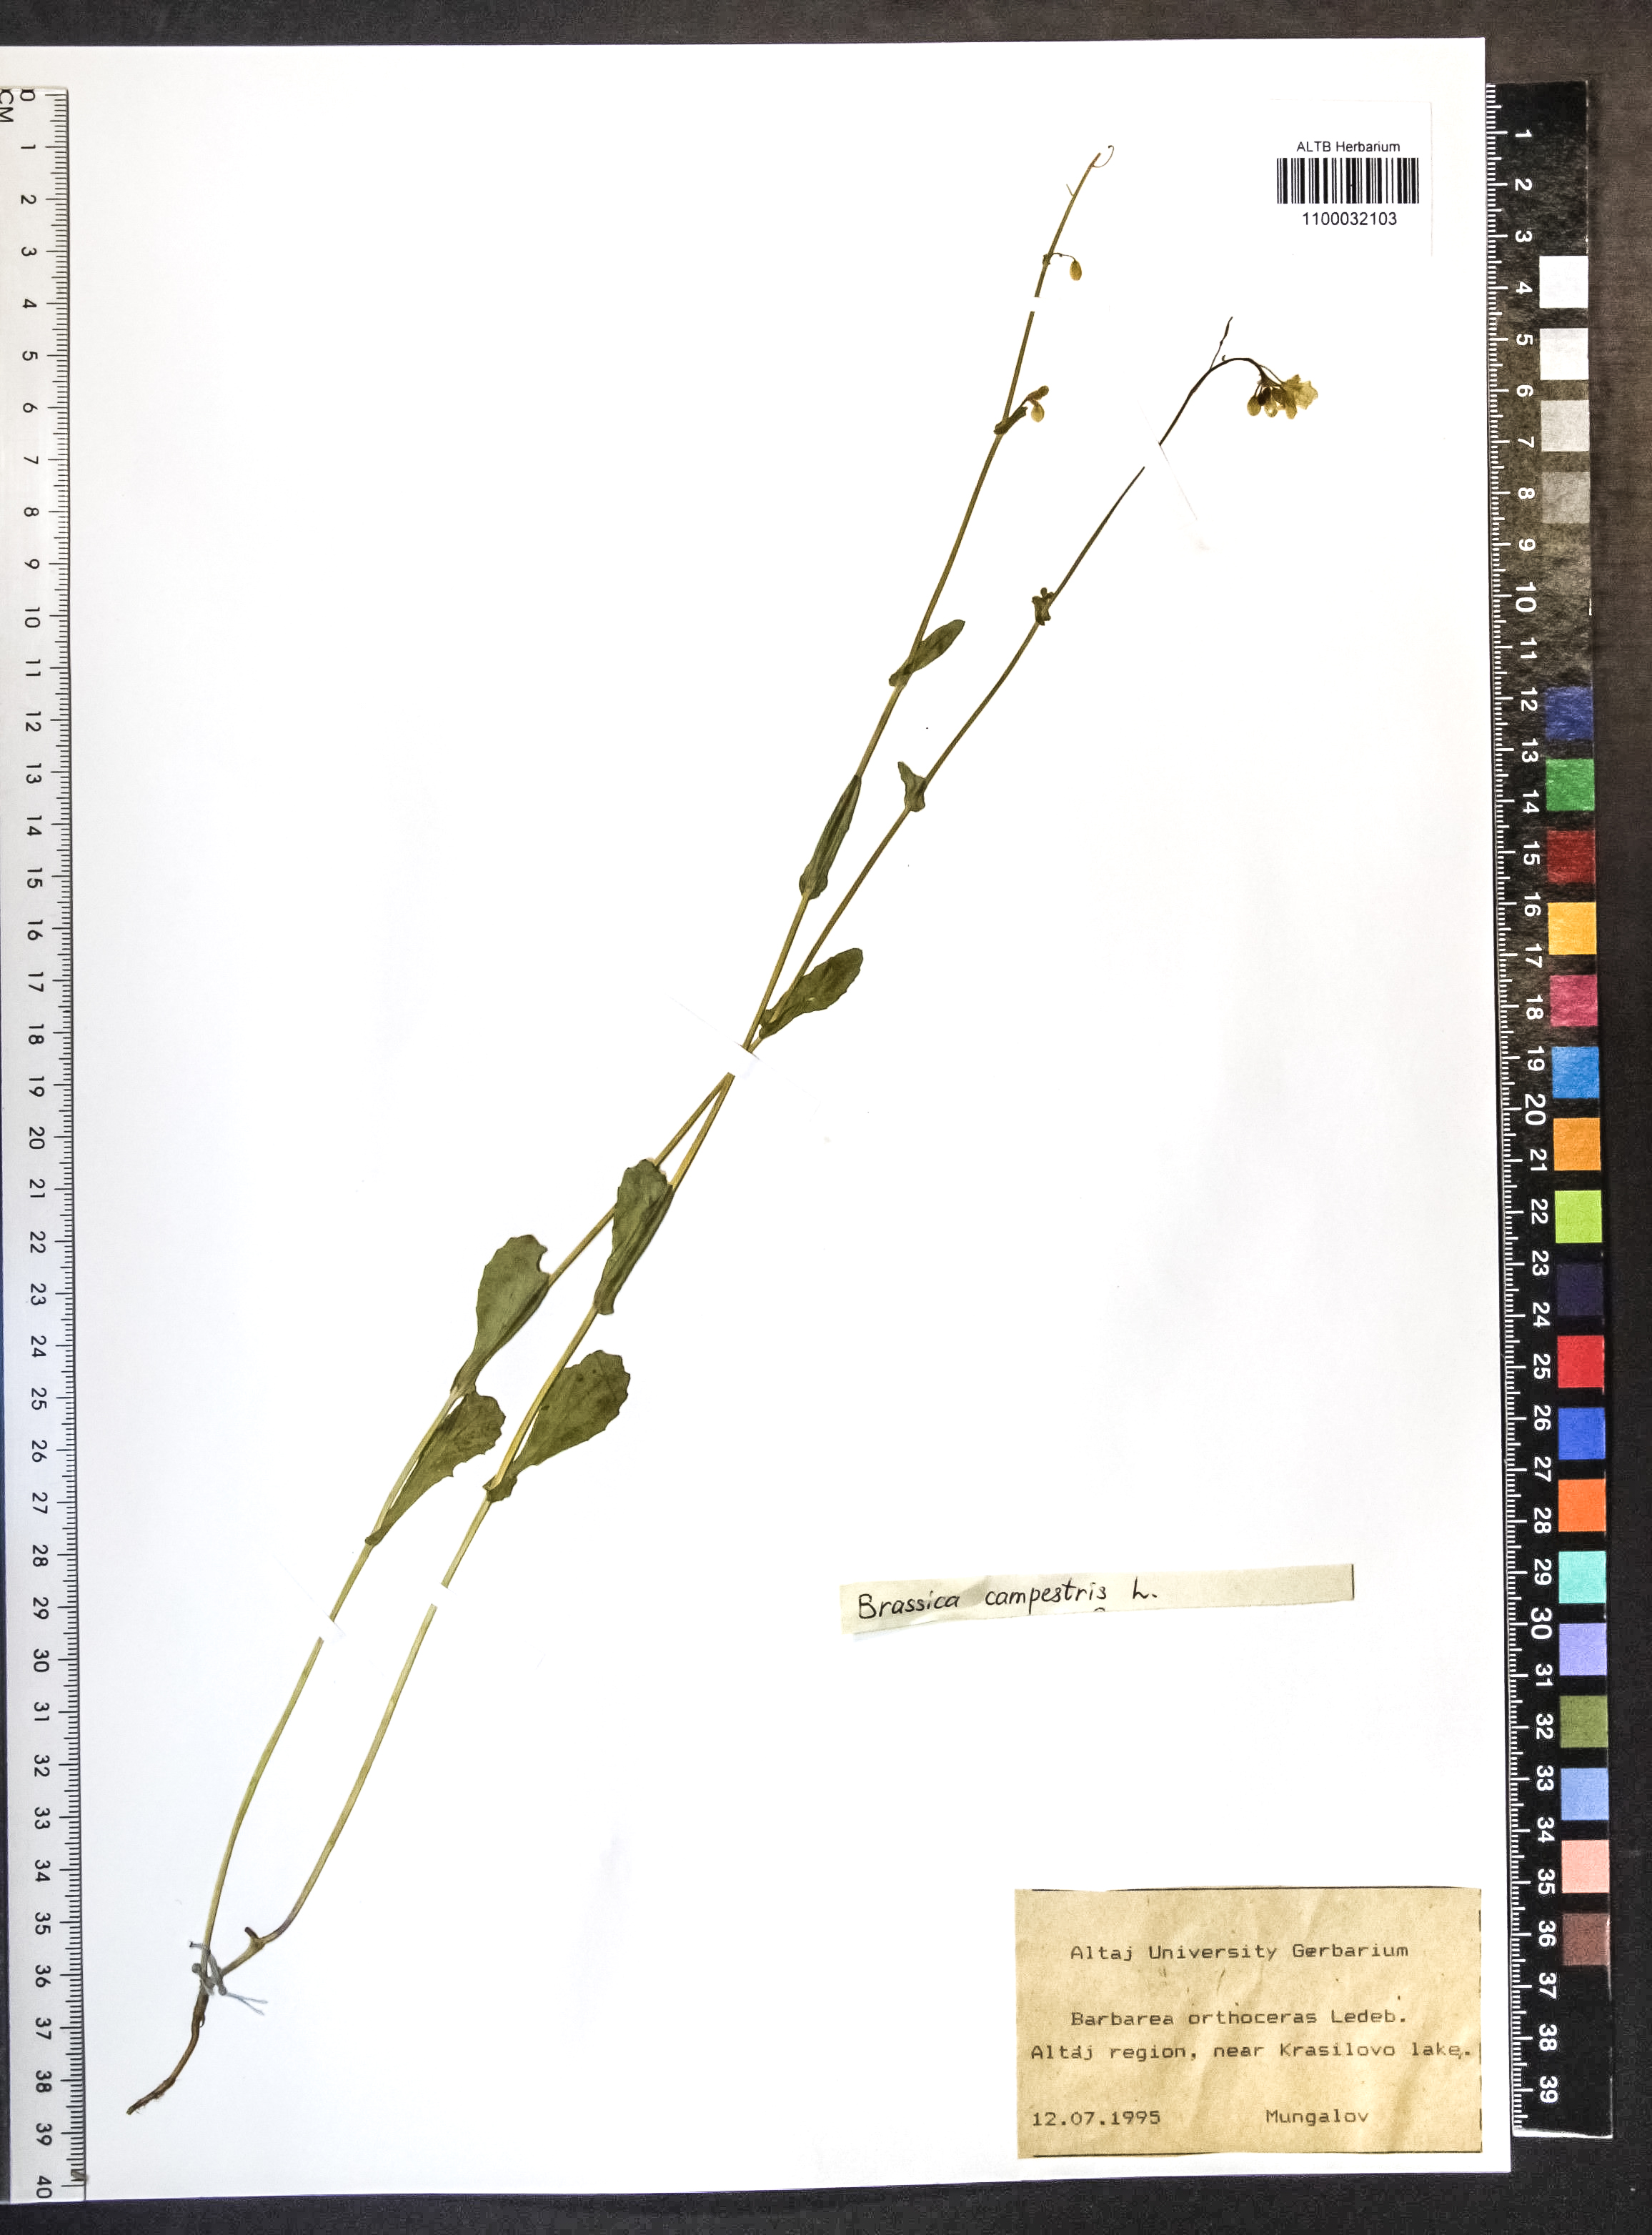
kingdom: Plantae
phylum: Tracheophyta
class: Magnoliopsida
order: Brassicales
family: Brassicaceae
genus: Brassica
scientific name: Brassica rapa
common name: Field mustard
